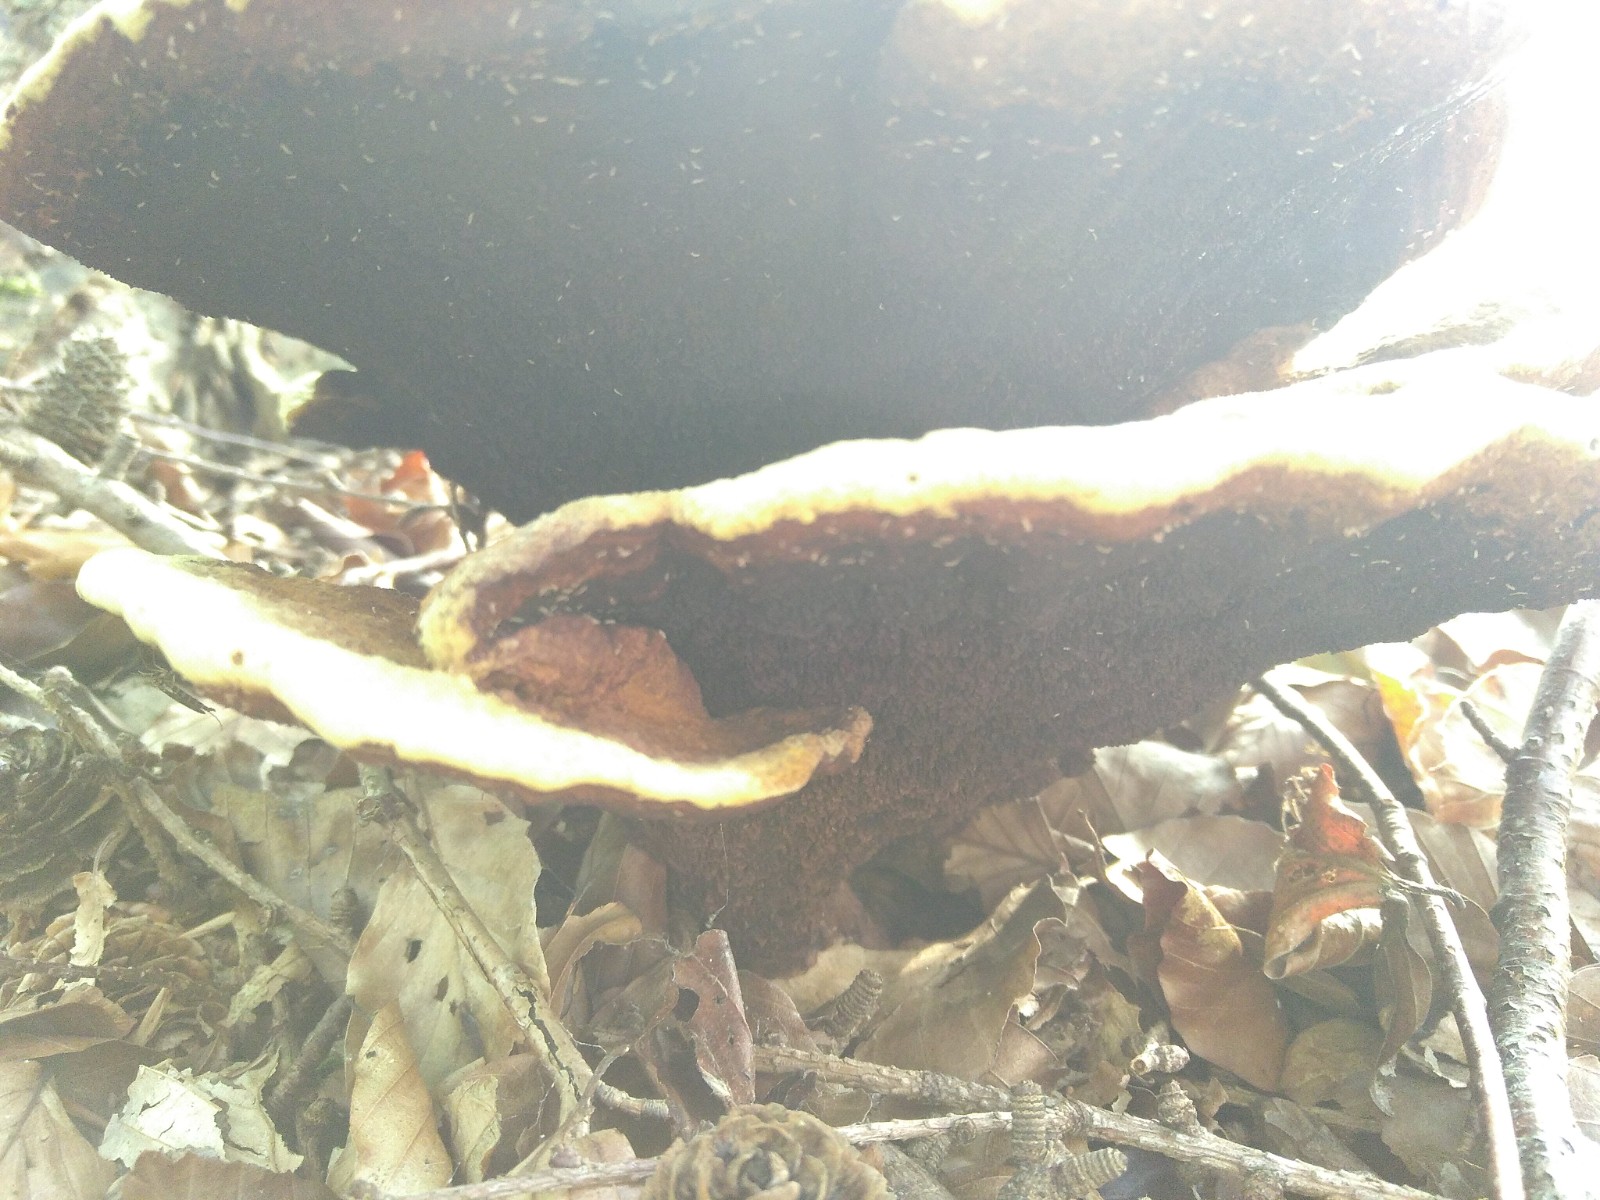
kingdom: Fungi
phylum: Basidiomycota
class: Agaricomycetes
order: Polyporales
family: Laetiporaceae
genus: Phaeolus
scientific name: Phaeolus schweinitzii
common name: brunporesvamp
